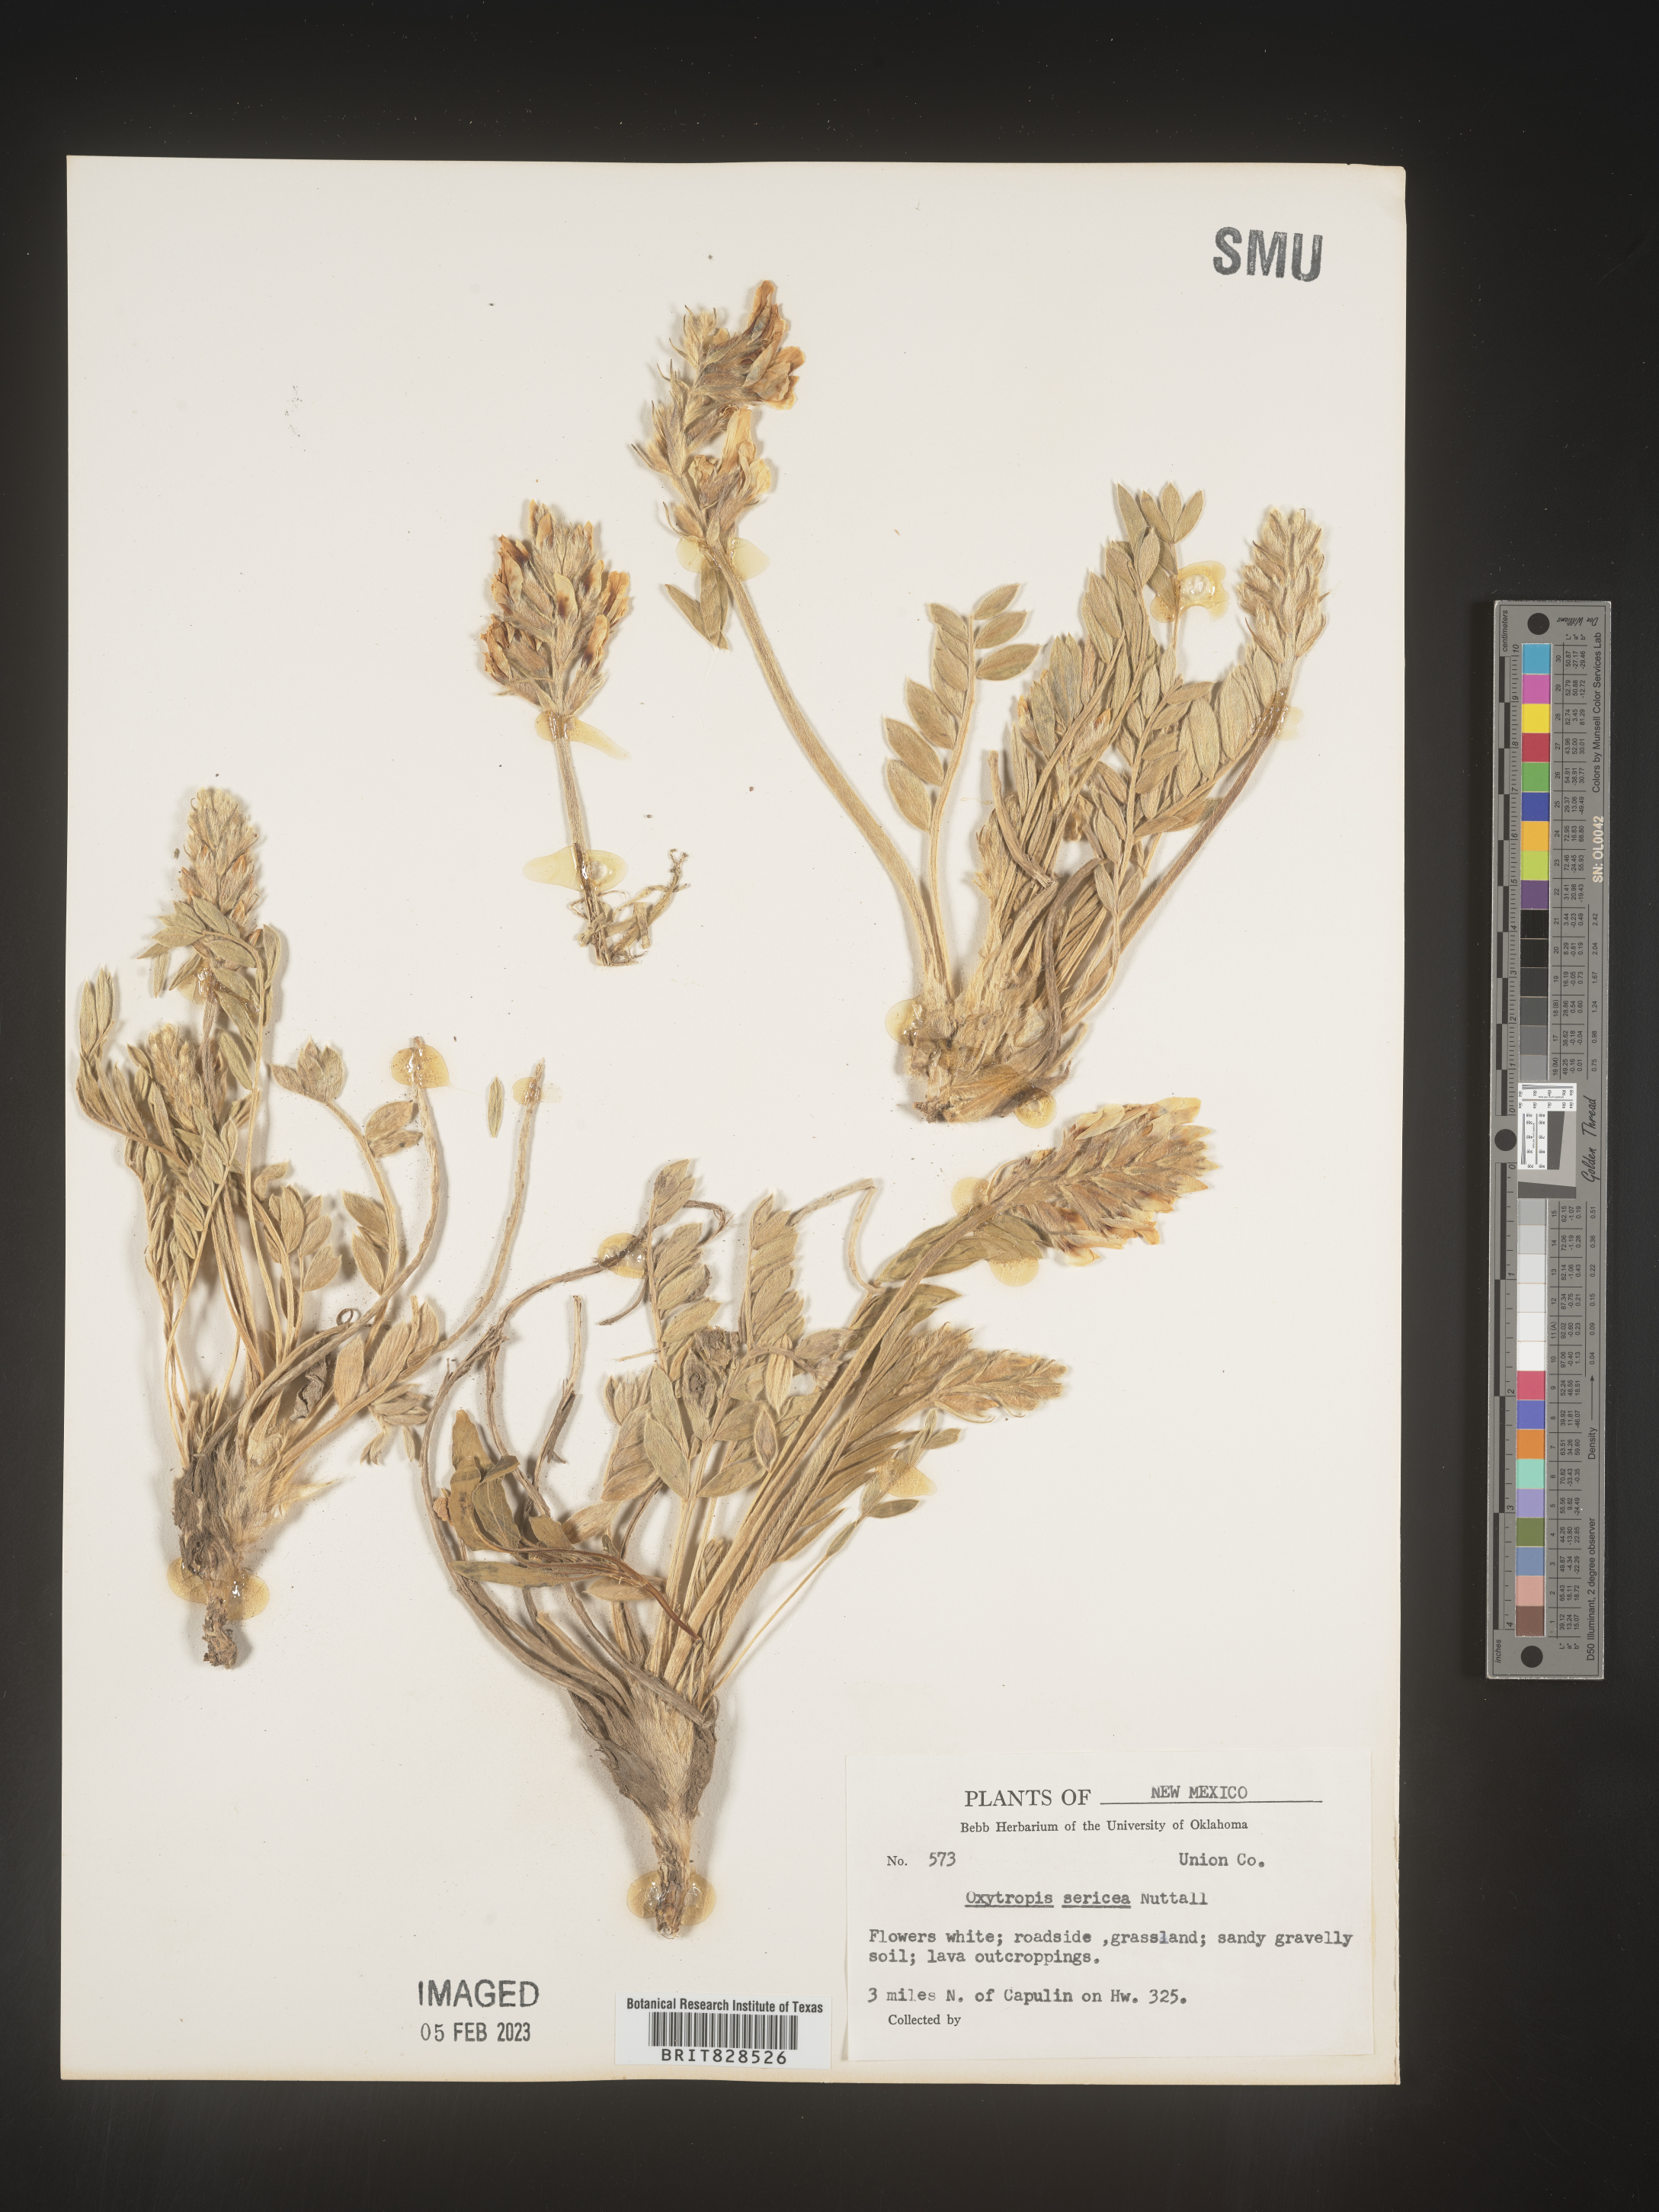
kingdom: Plantae
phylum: Tracheophyta
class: Magnoliopsida
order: Fabales
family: Fabaceae
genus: Oxytropis
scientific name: Oxytropis sericea
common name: Silky locoweed
